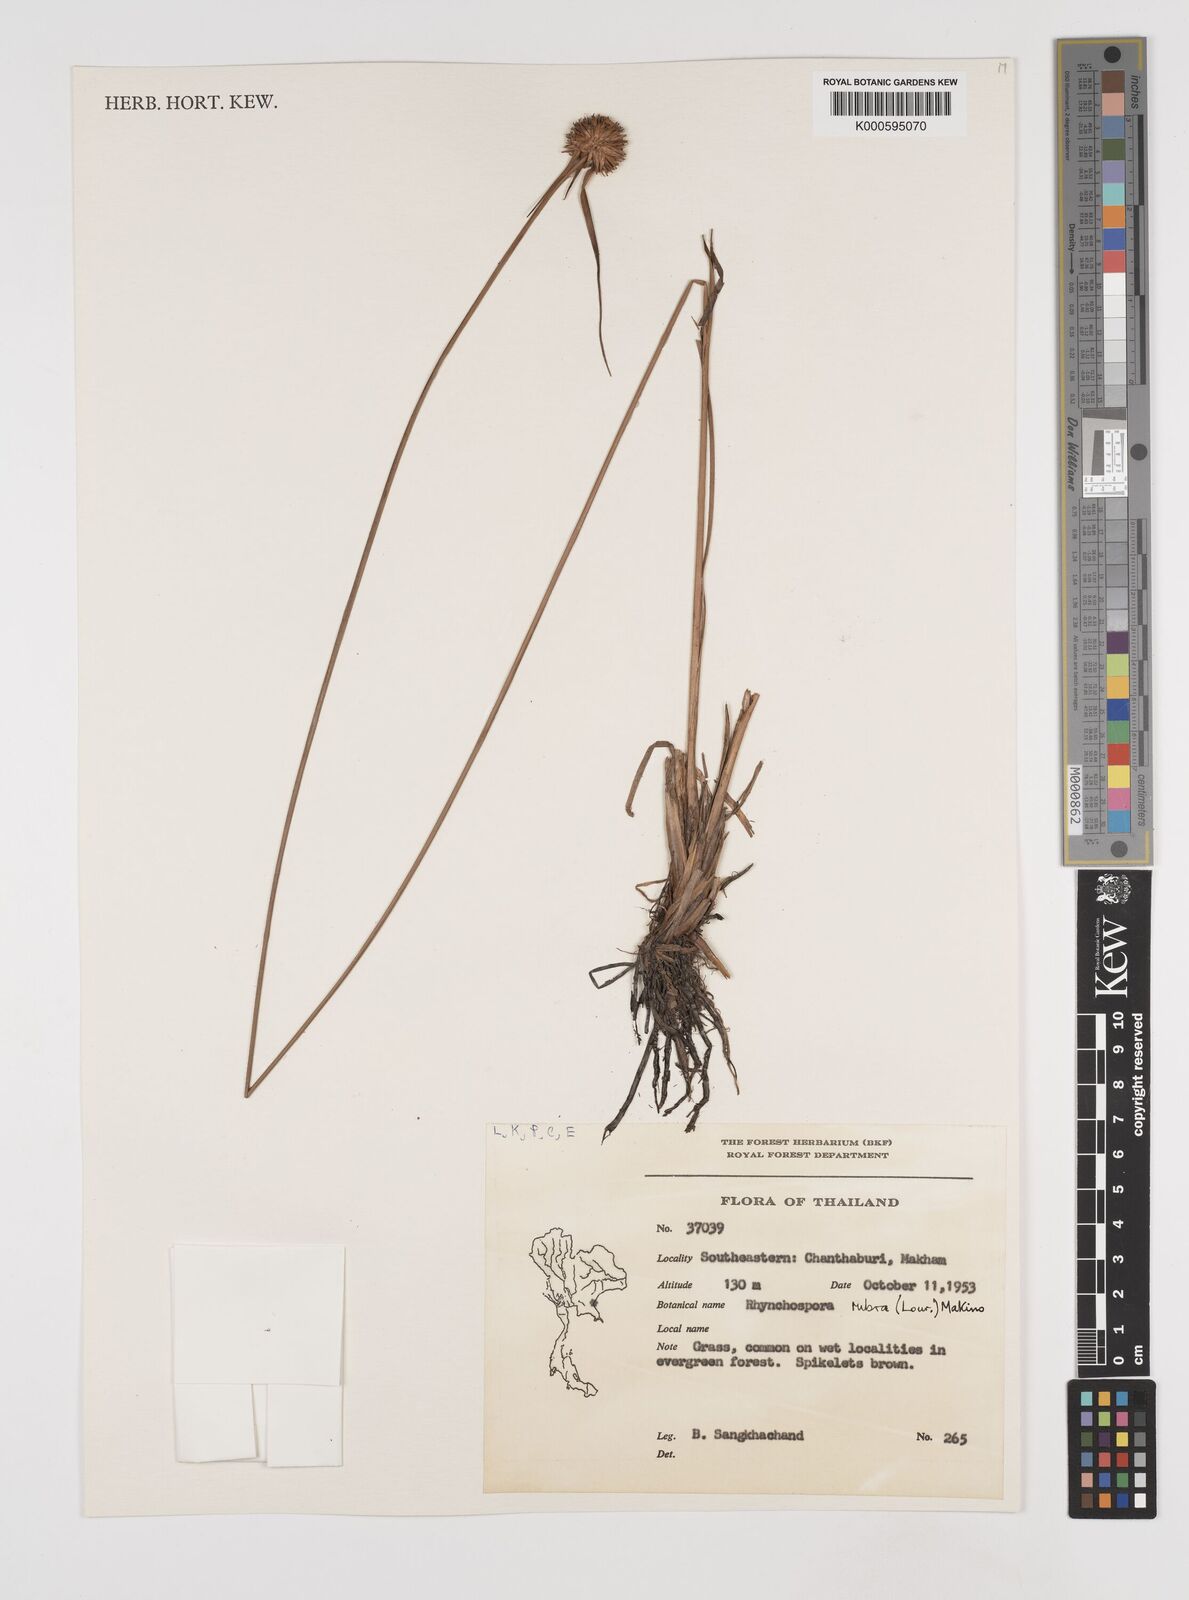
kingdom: Plantae
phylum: Tracheophyta
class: Liliopsida
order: Poales
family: Cyperaceae
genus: Rhynchospora
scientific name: Rhynchospora rubra
